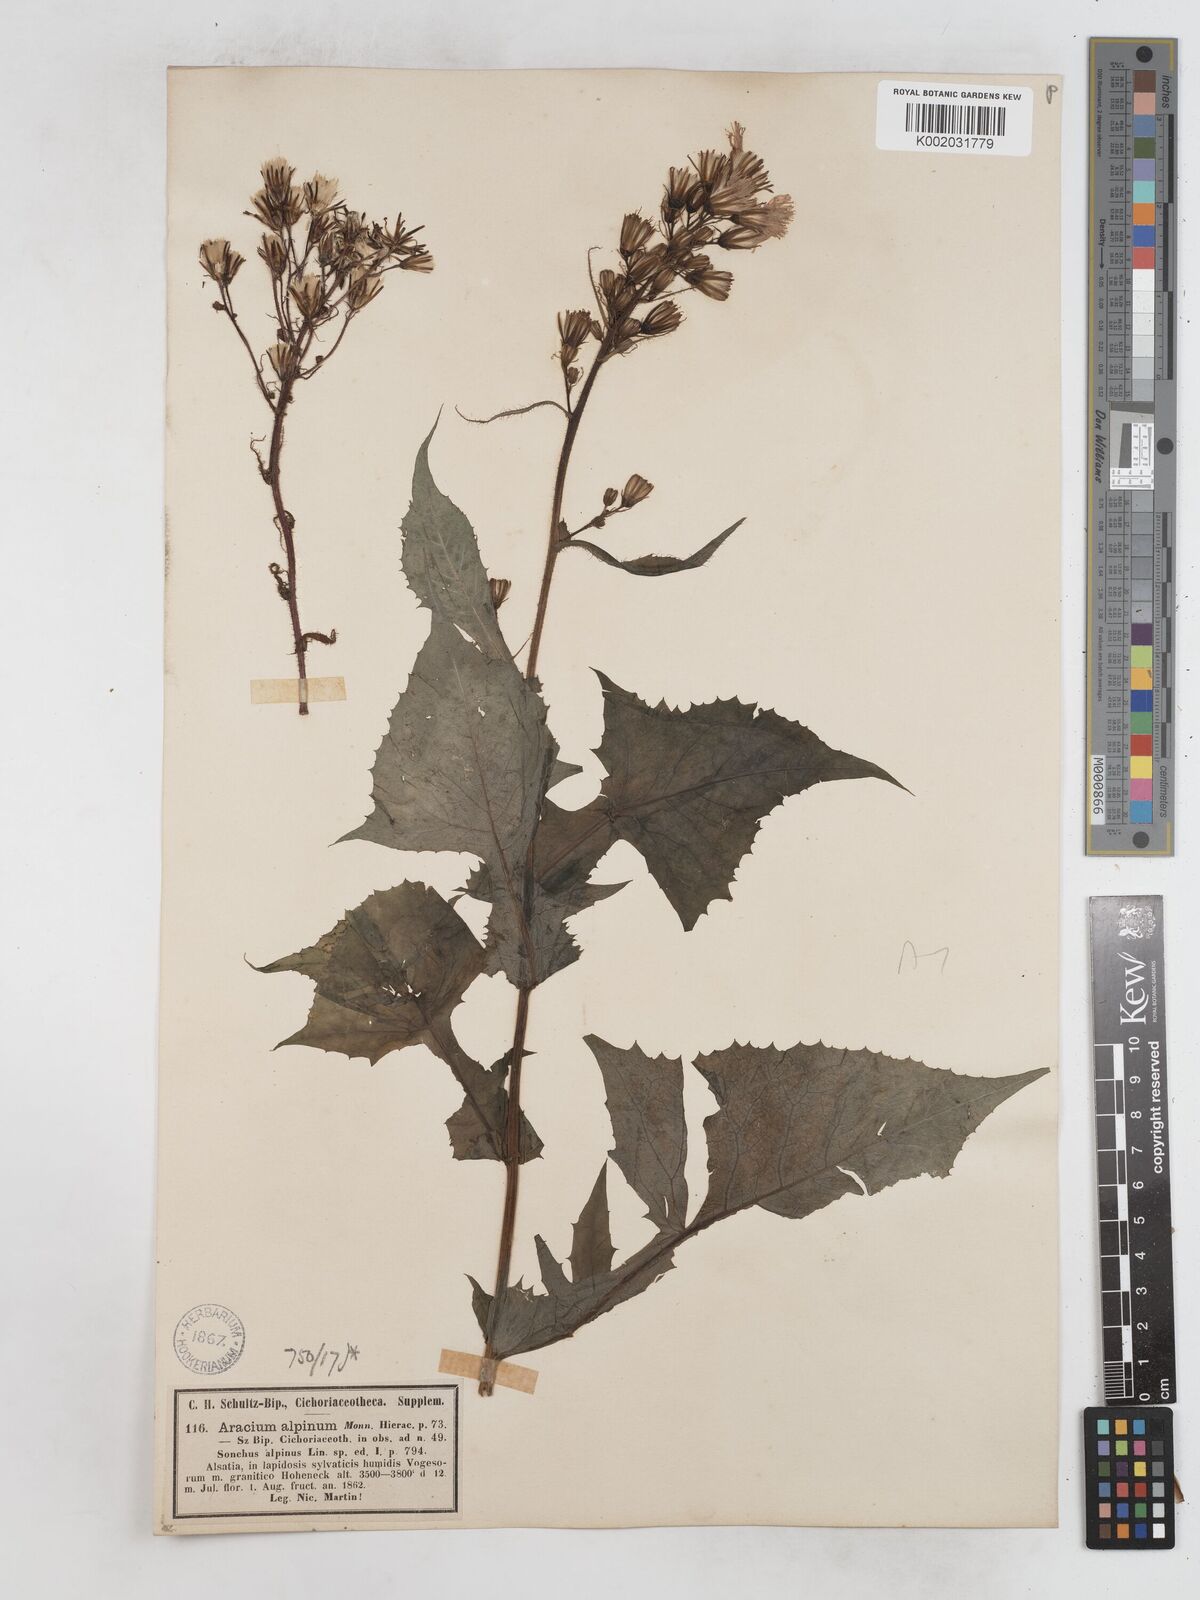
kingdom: Plantae
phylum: Tracheophyta
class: Magnoliopsida
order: Asterales
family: Asteraceae
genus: Cicerbita
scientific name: Cicerbita alpina
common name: Alpine blue-sow-thistle
